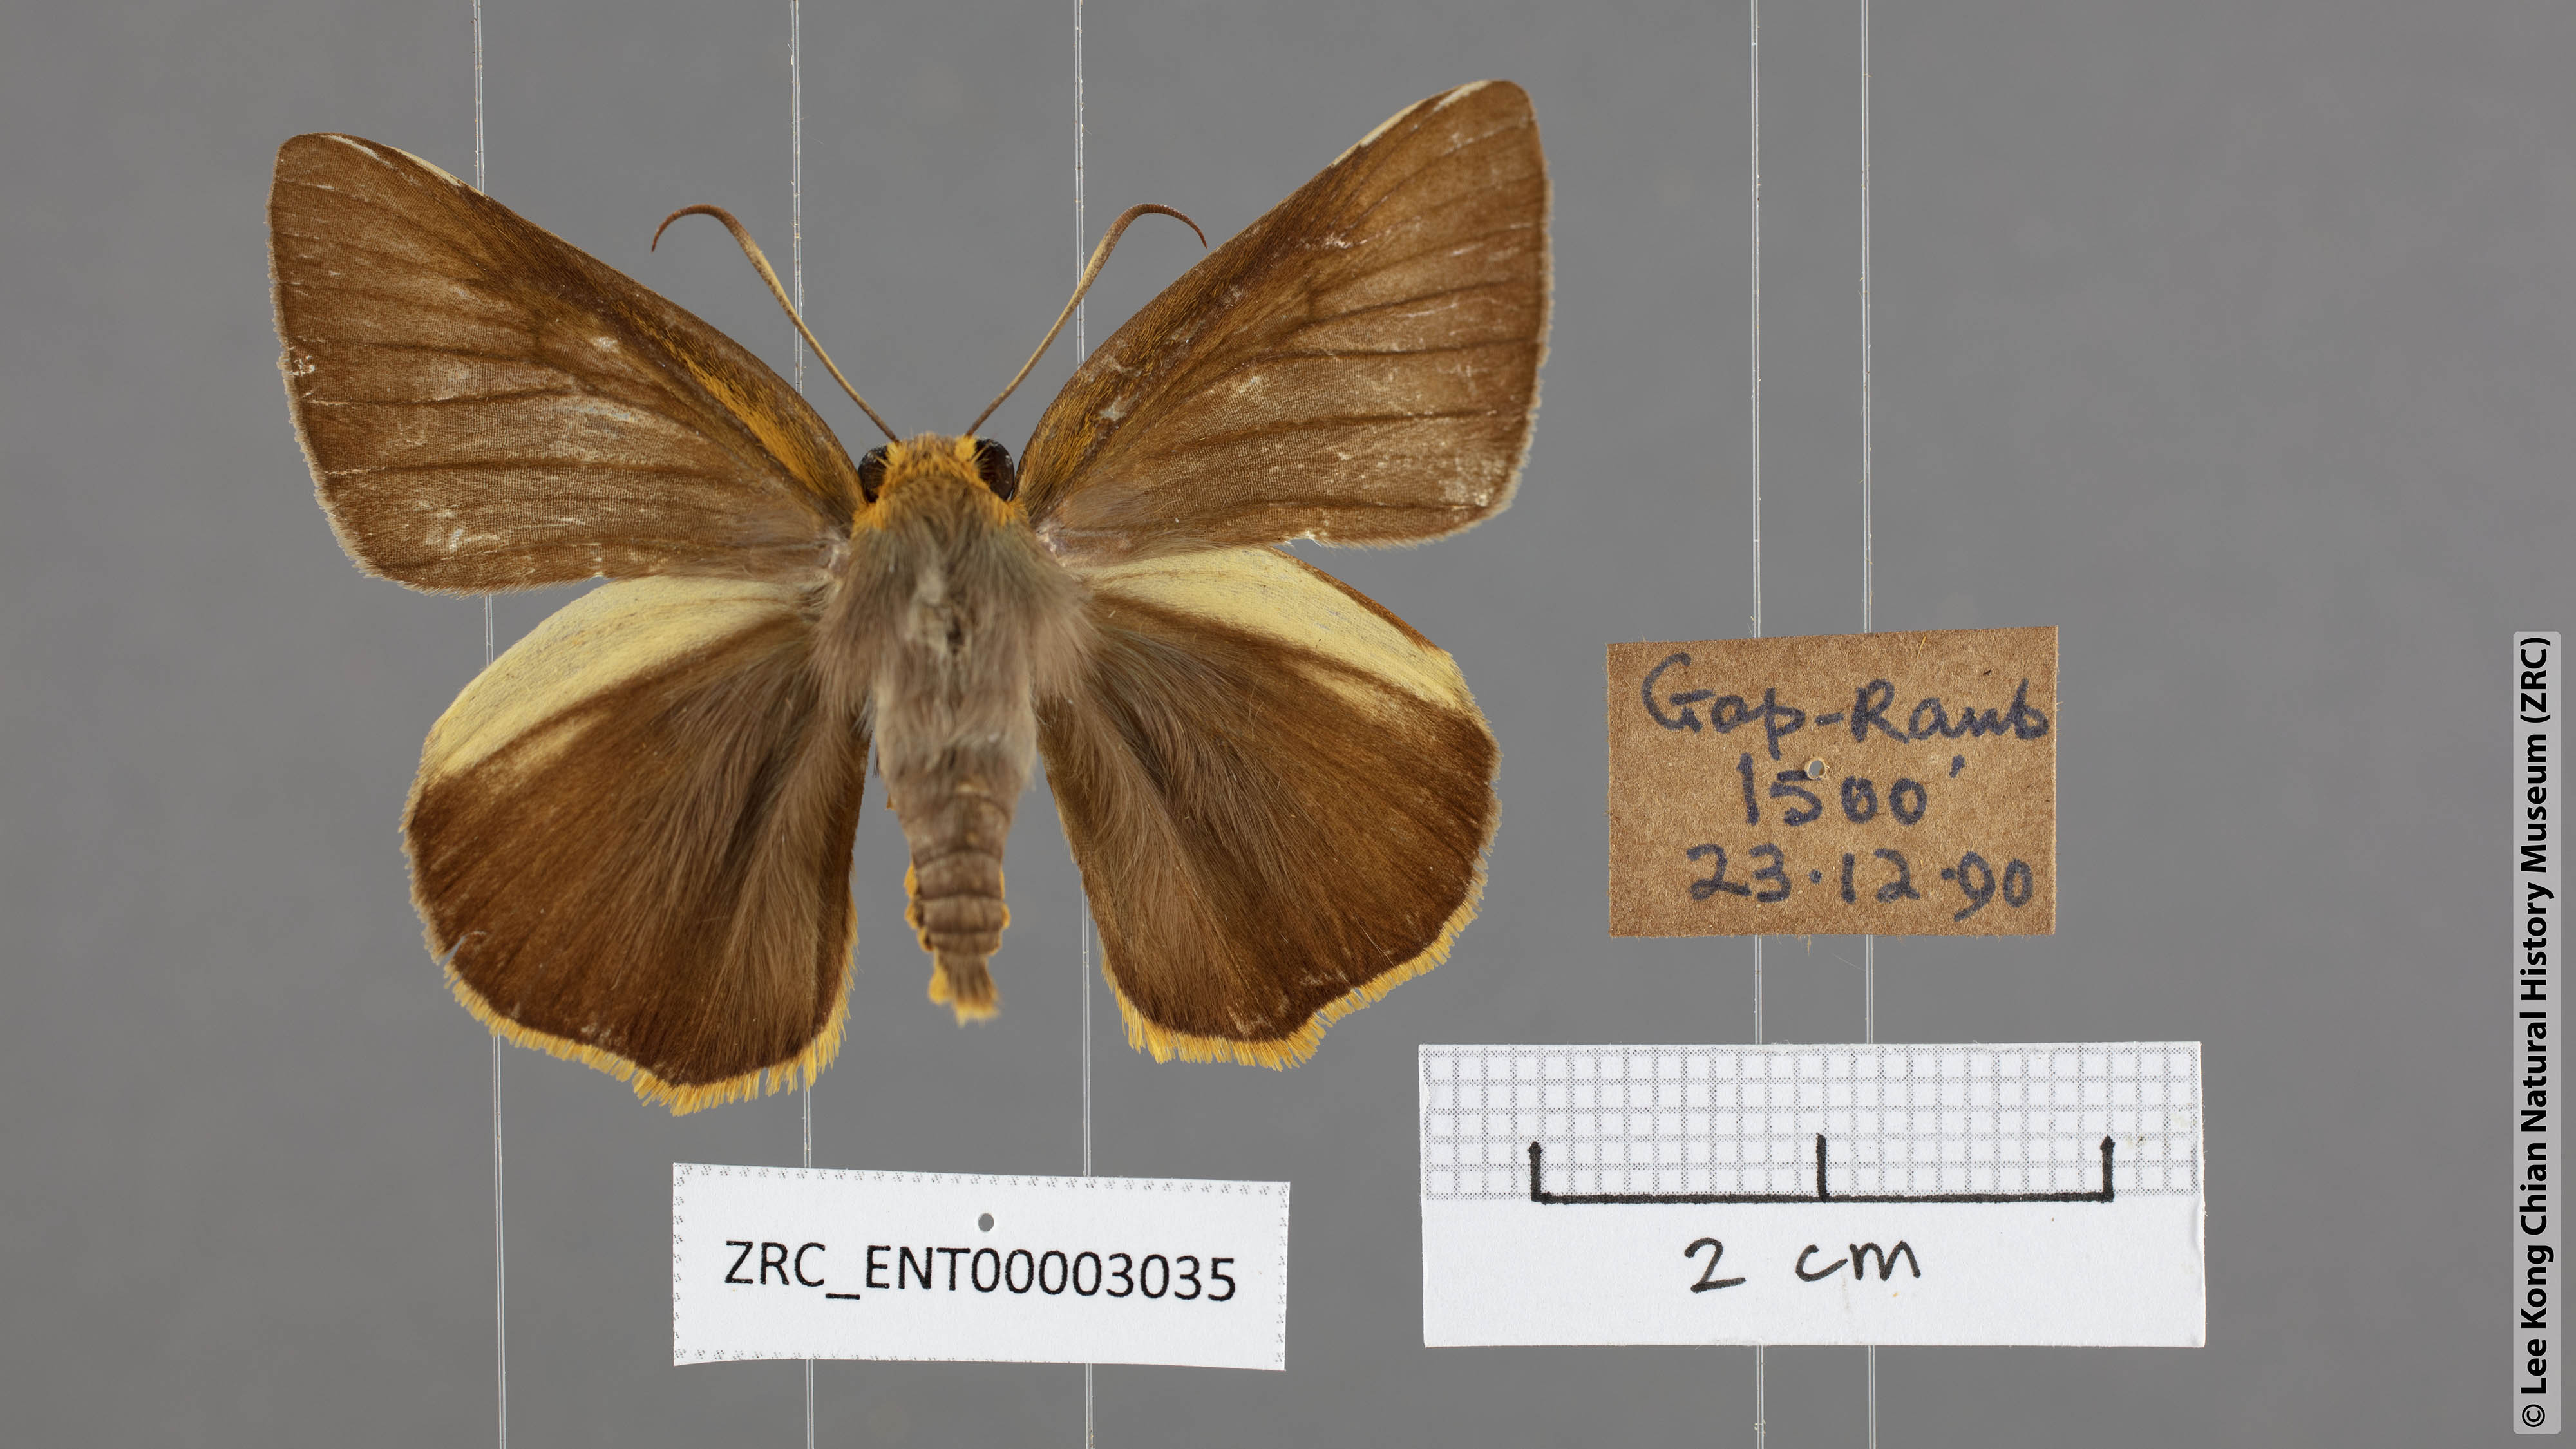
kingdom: Animalia
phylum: Arthropoda
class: Insecta
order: Lepidoptera
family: Hesperiidae
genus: Bibasis
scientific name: Bibasis Burara harisa
